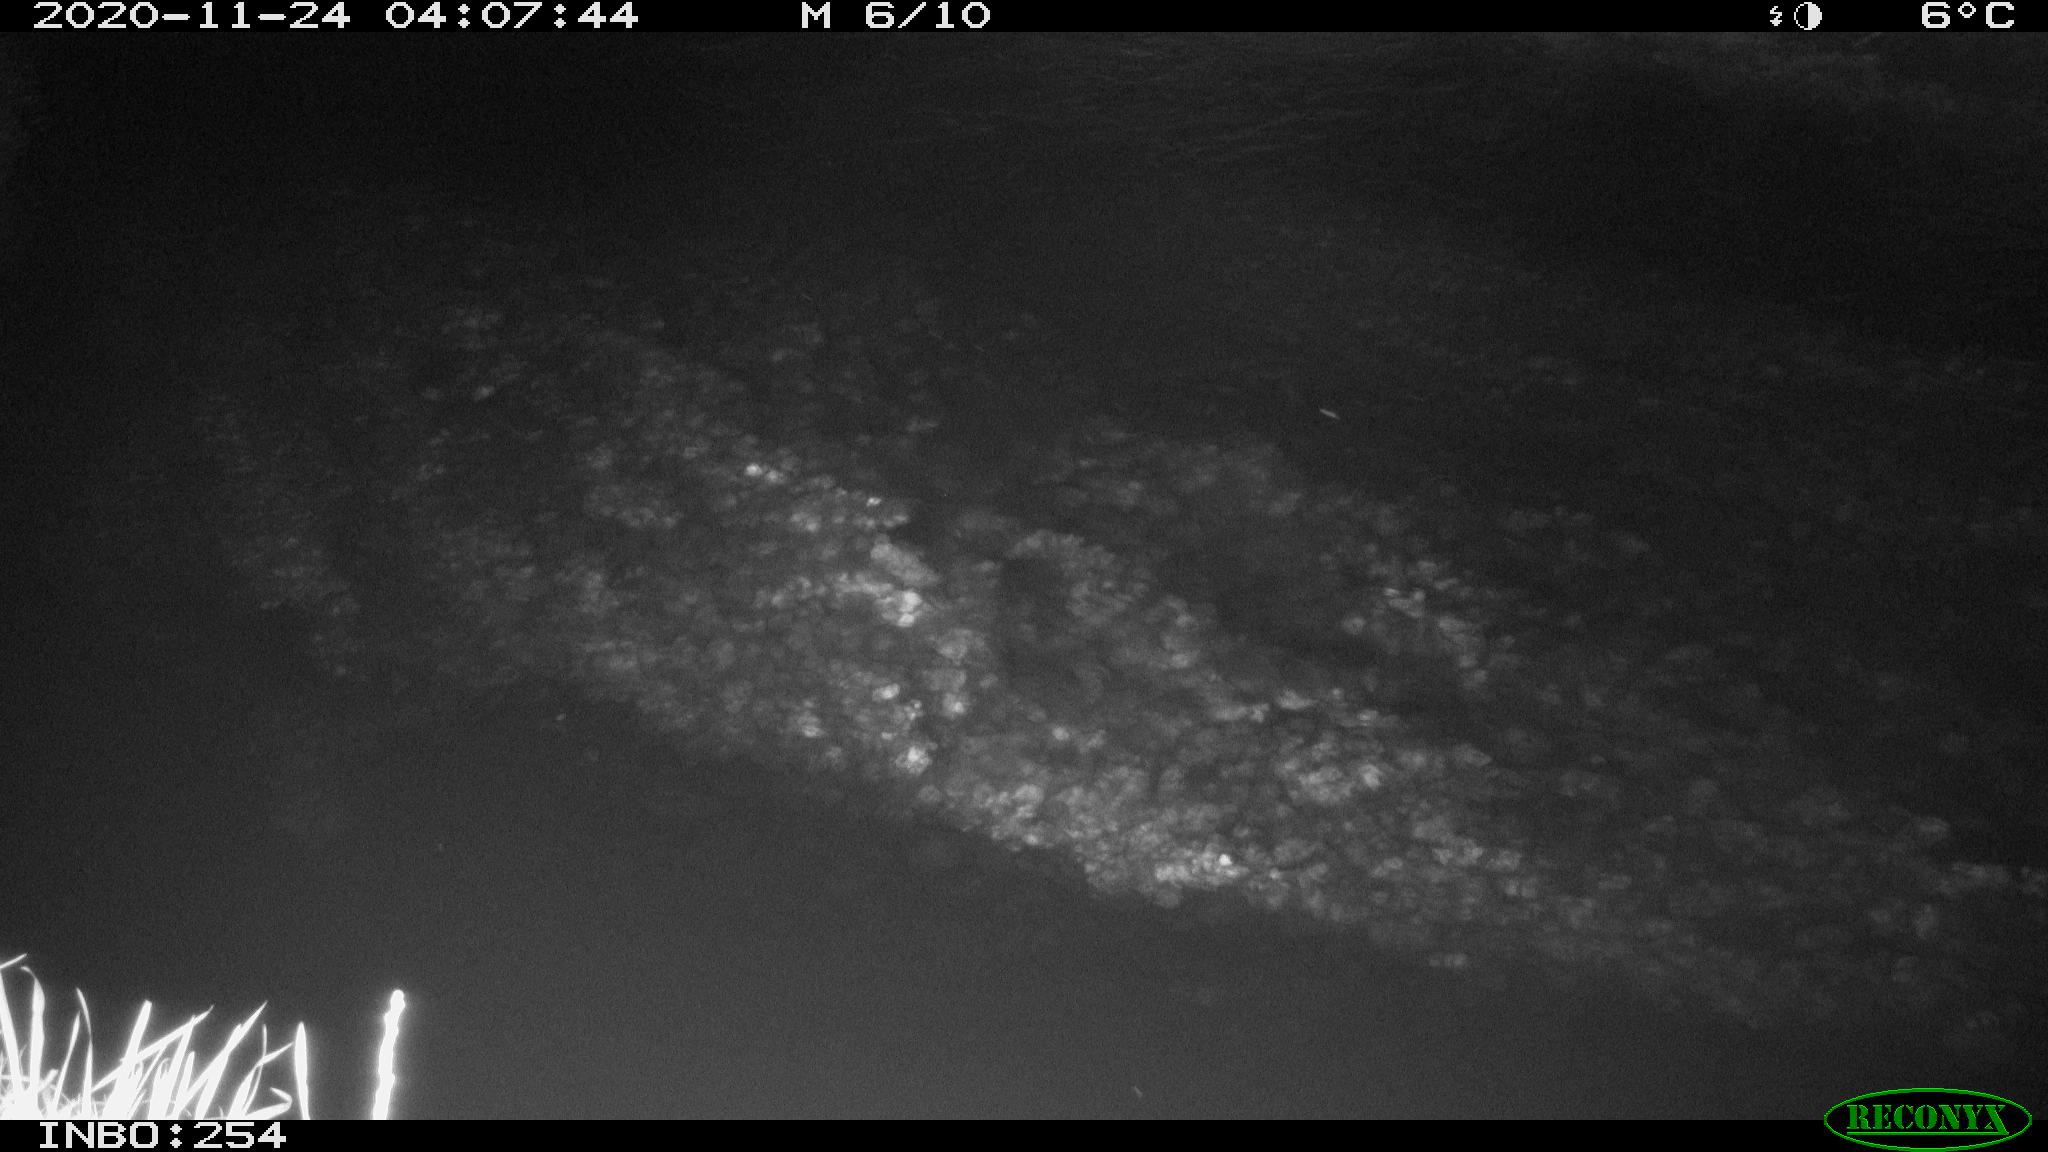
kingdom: Animalia
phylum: Chordata
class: Aves
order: Anseriformes
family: Anatidae
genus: Anas
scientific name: Anas platyrhynchos
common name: Mallard
